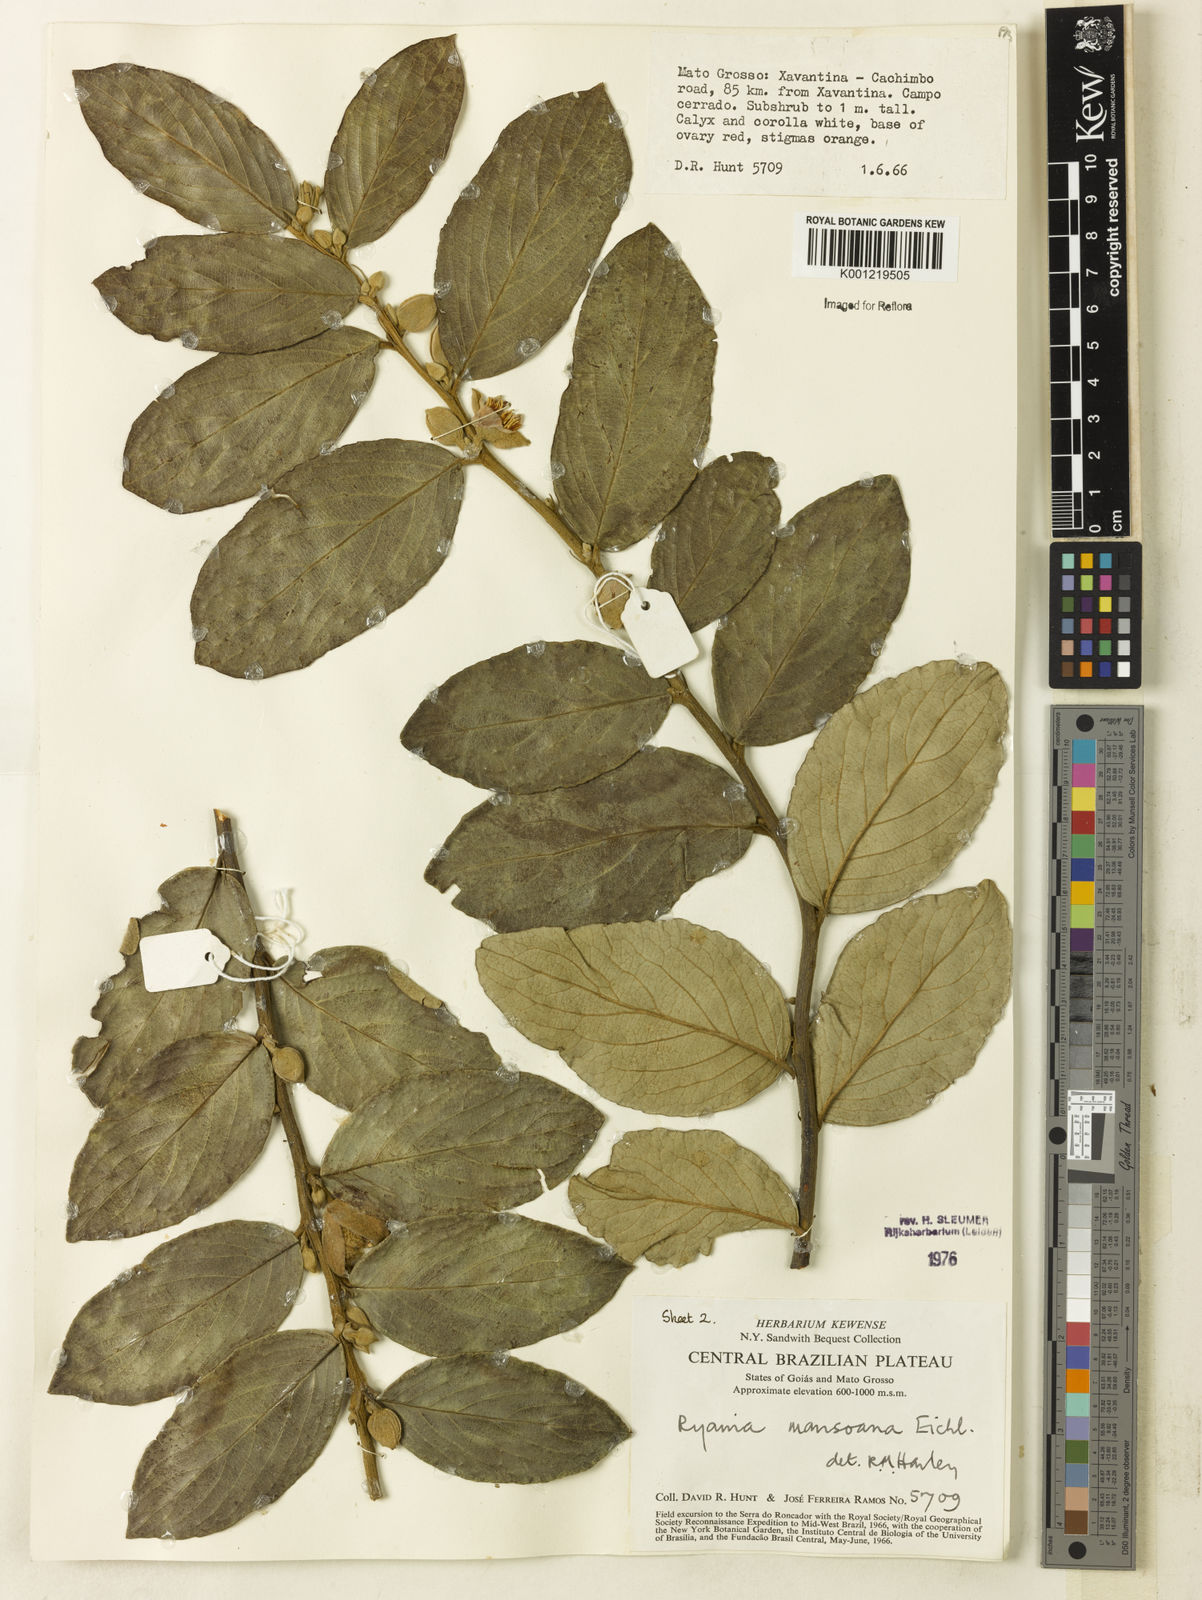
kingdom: Plantae
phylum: Tracheophyta
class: Magnoliopsida
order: Malpighiales
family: Salicaceae
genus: Ryania
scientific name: Ryania mansoana
